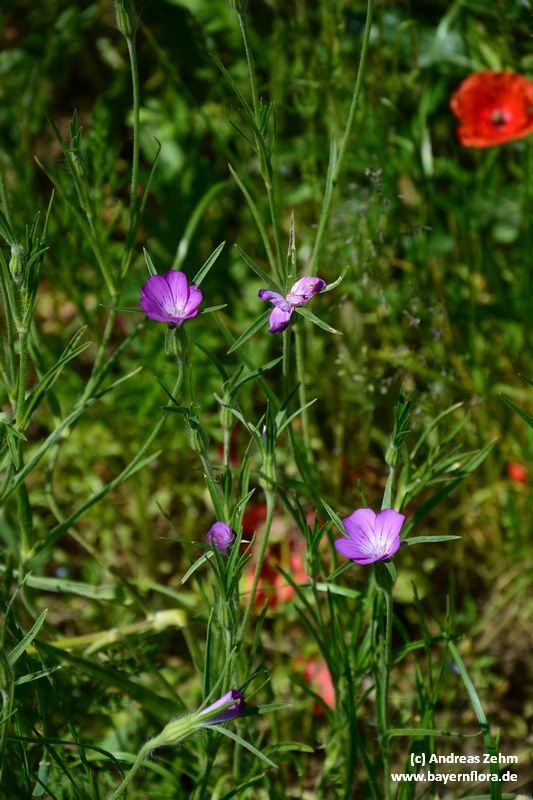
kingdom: Plantae
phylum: Tracheophyta
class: Magnoliopsida
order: Caryophyllales
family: Caryophyllaceae
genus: Agrostemma
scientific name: Agrostemma githago
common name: Common corncockle
